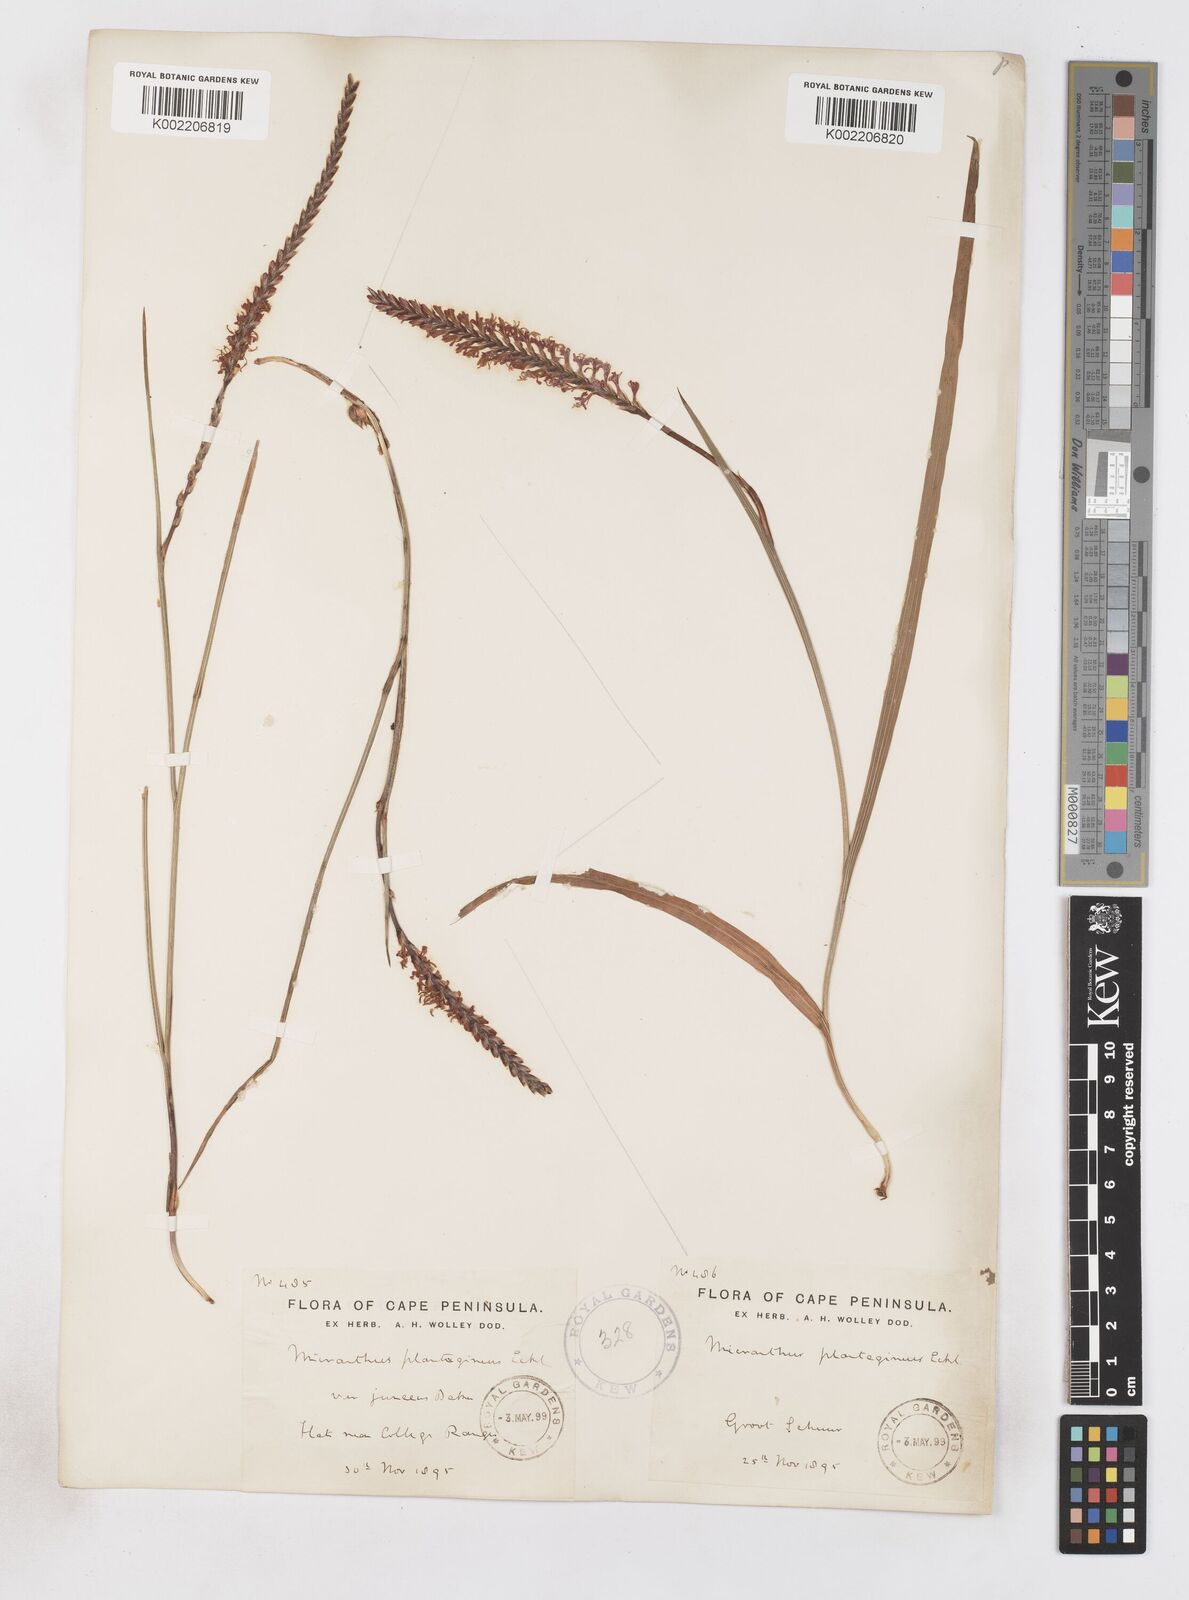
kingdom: Plantae
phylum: Tracheophyta
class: Liliopsida
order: Asparagales
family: Iridaceae
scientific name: Iridaceae
